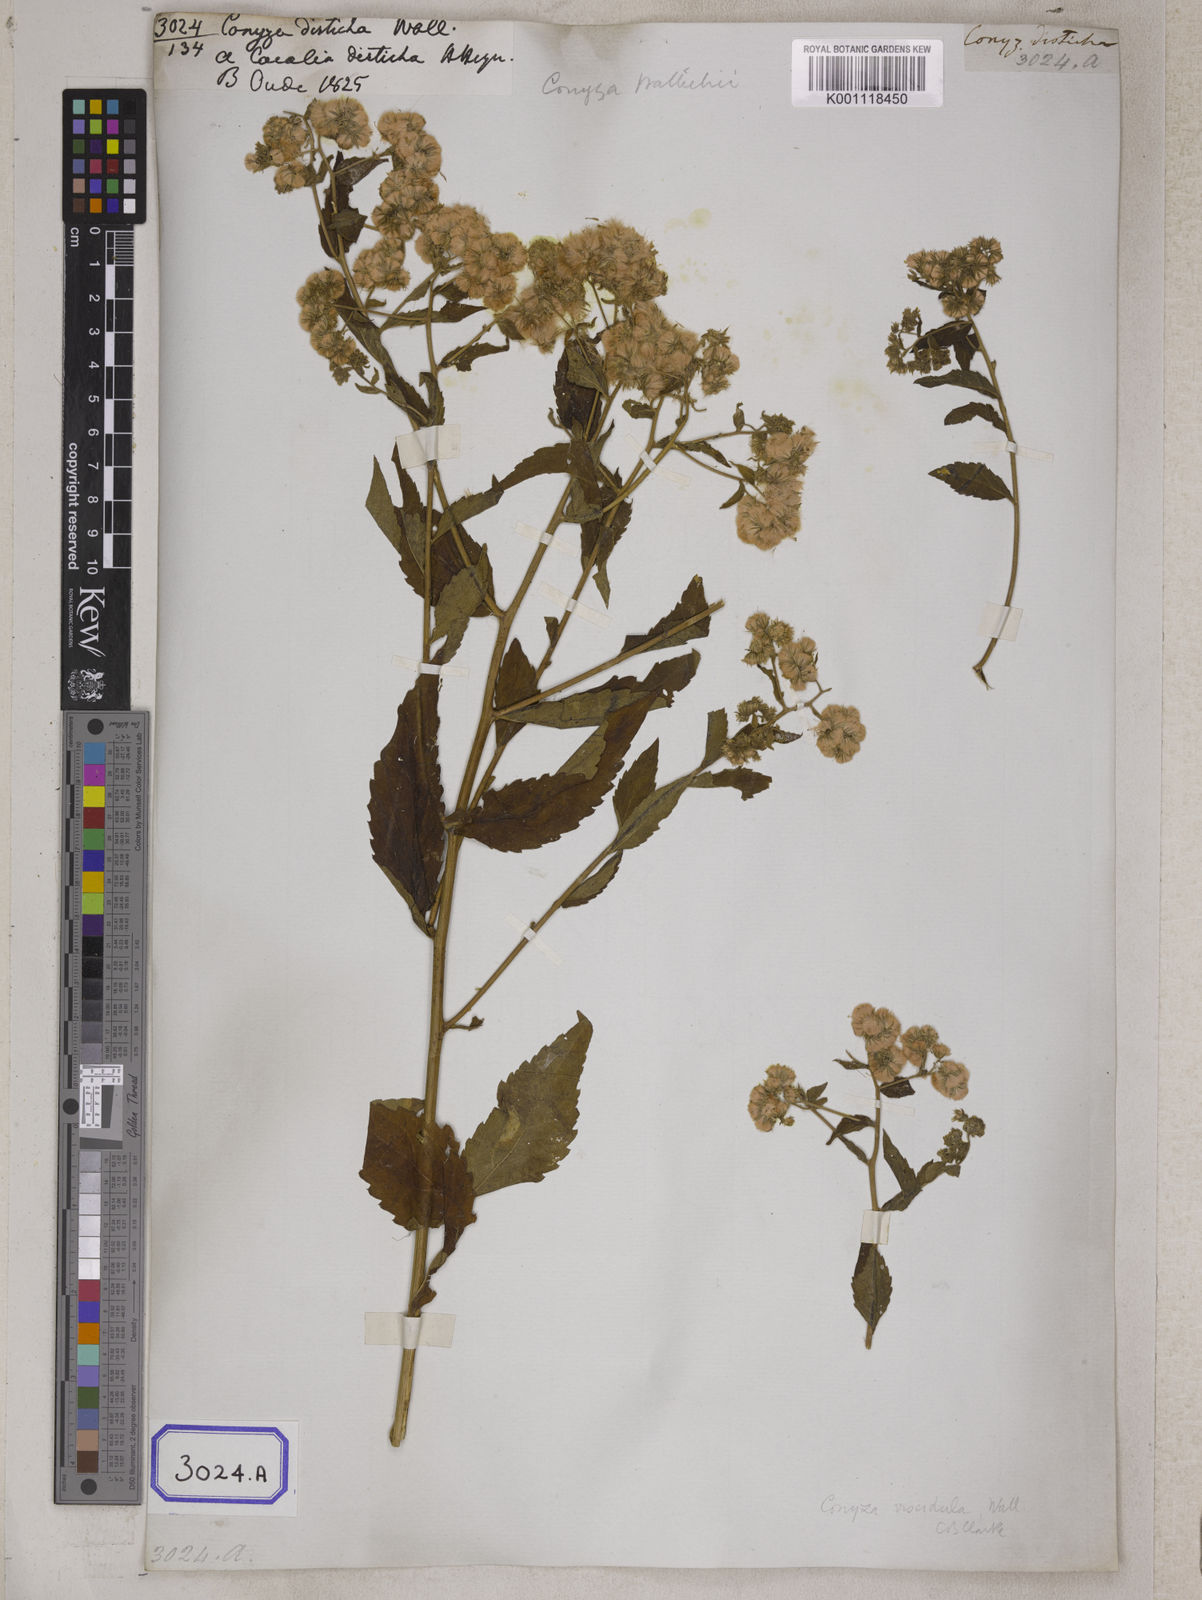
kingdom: Plantae
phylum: Tracheophyta
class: Magnoliopsida
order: Asterales
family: Asteraceae
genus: Eschenbachia
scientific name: Eschenbachia leucantha
